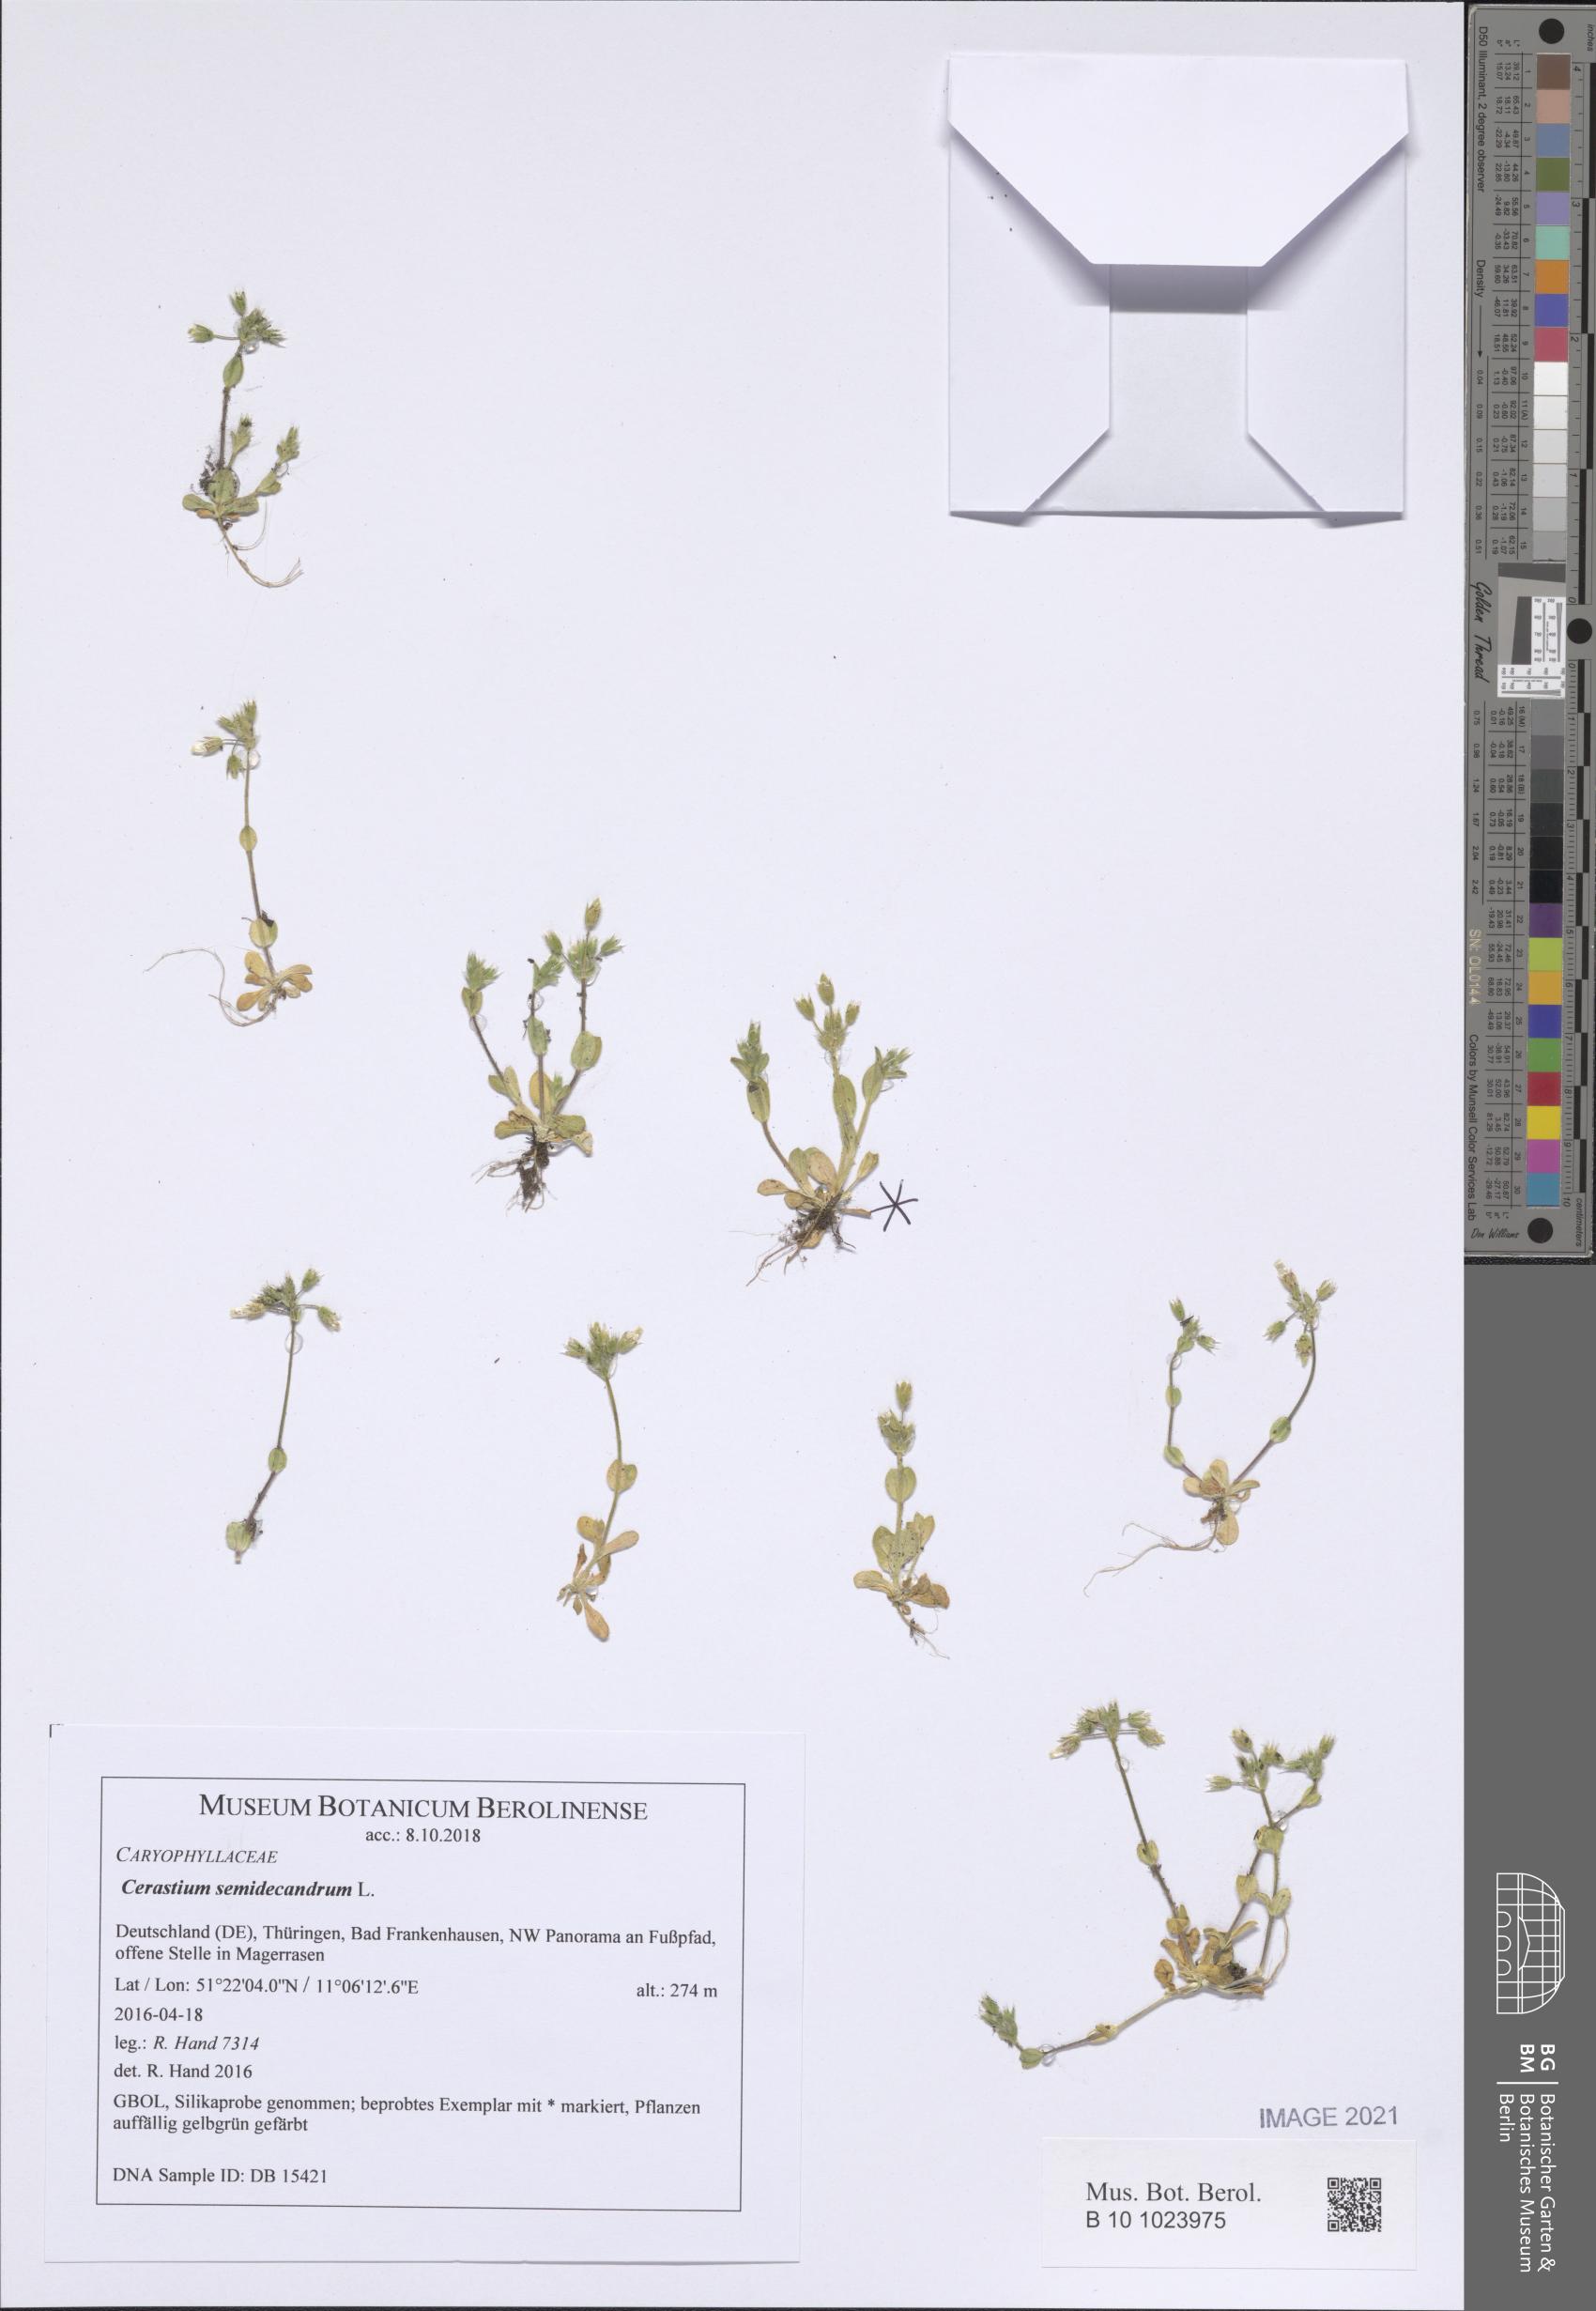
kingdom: Plantae
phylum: Tracheophyta
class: Magnoliopsida
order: Caryophyllales
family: Caryophyllaceae
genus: Cerastium
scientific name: Cerastium semidecandrum
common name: Little mouse-ear
